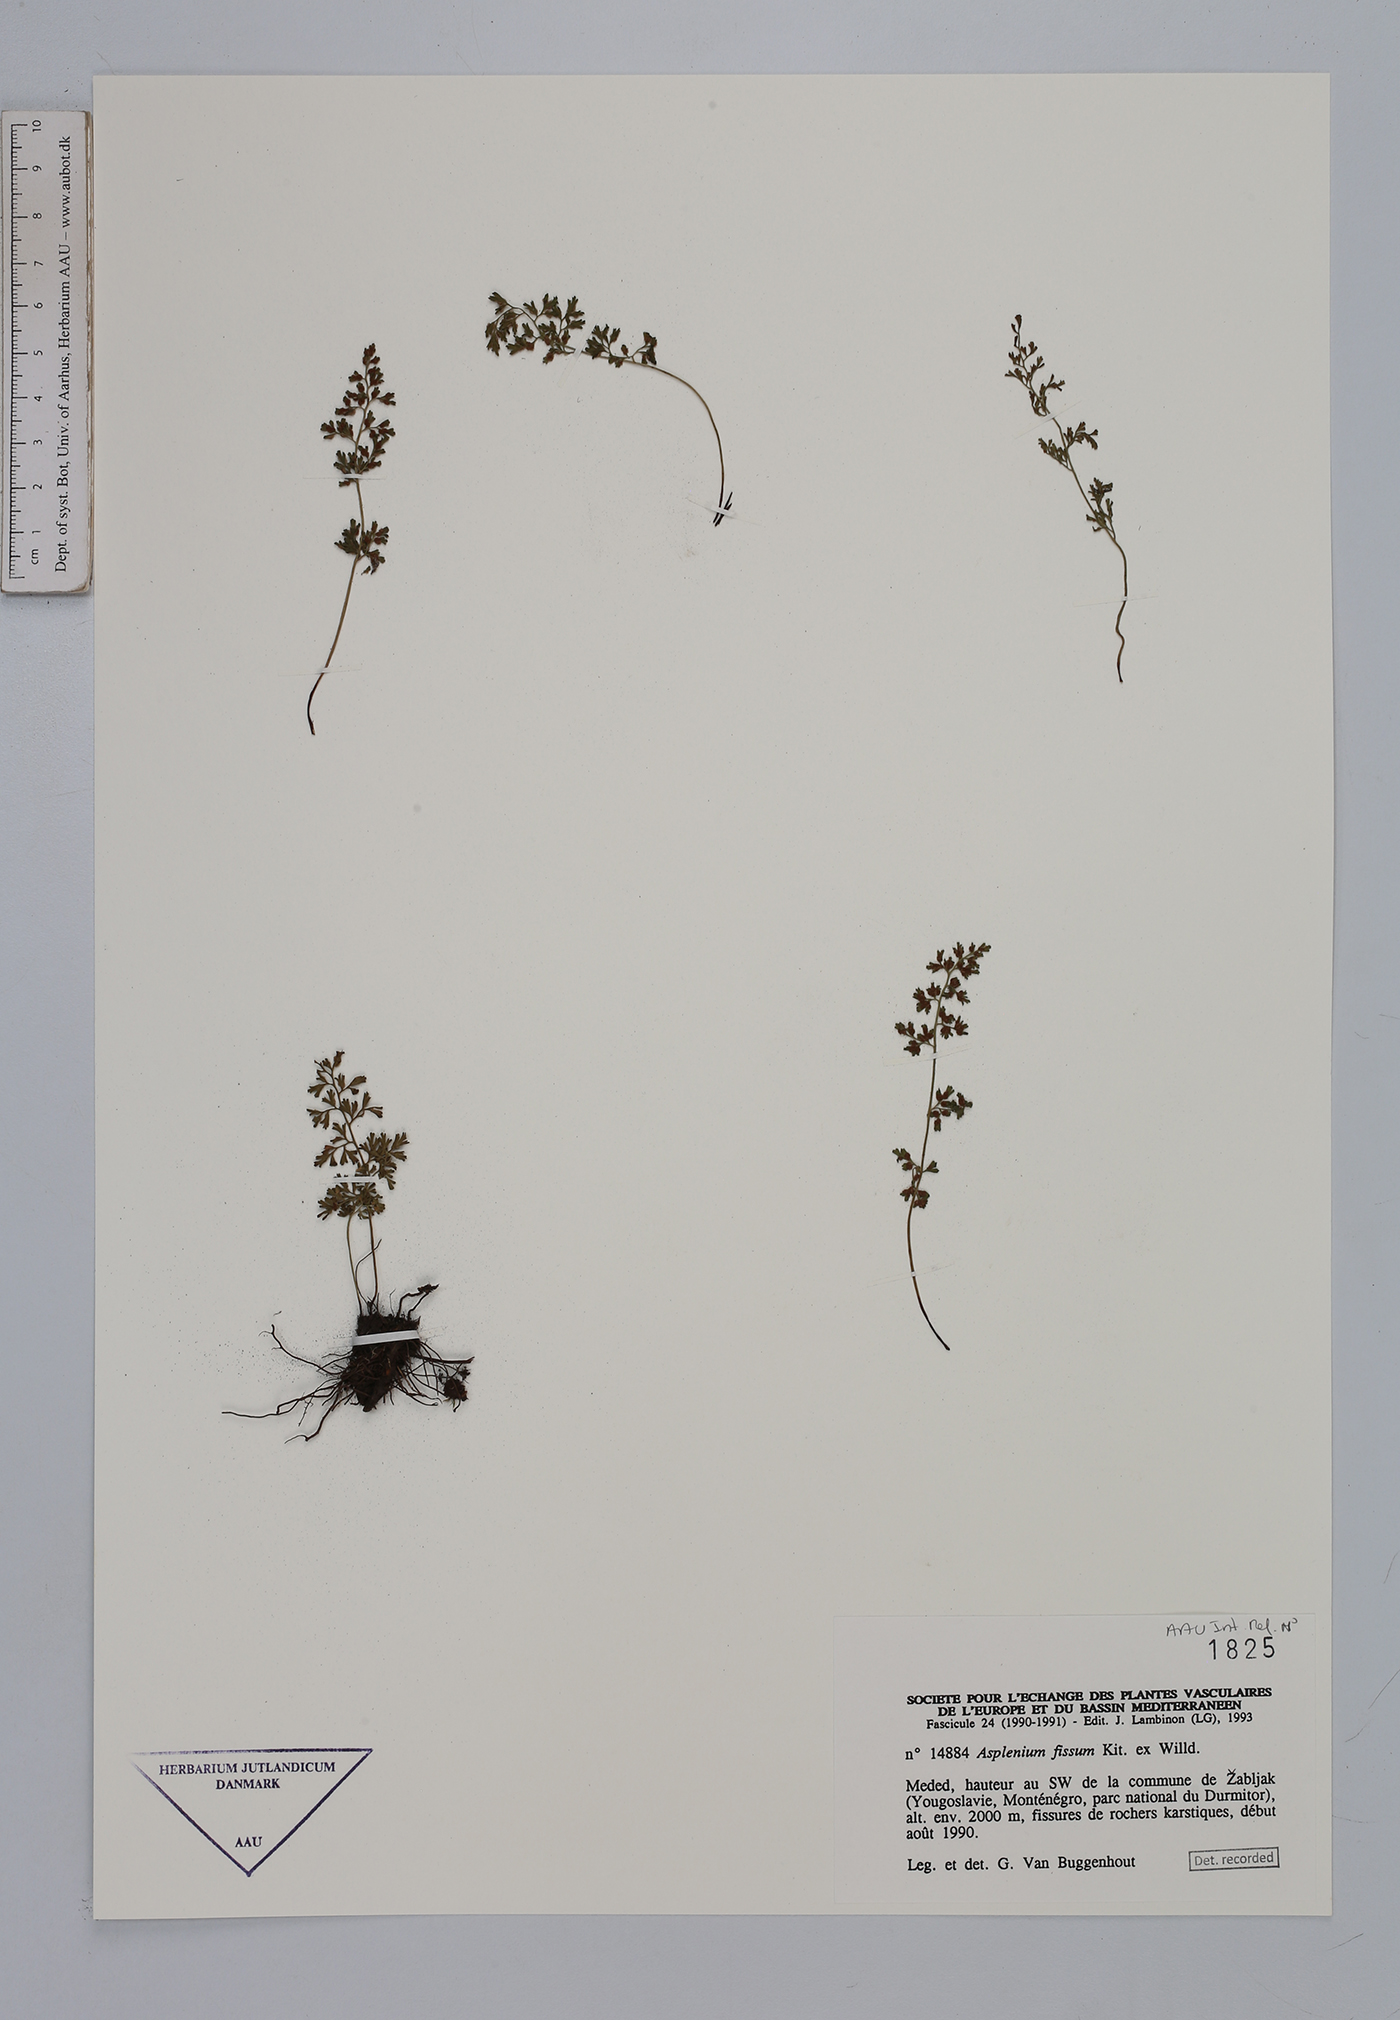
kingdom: Plantae
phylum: Tracheophyta
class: Polypodiopsida
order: Polypodiales
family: Aspleniaceae
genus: Asplenium
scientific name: Asplenium fissum
